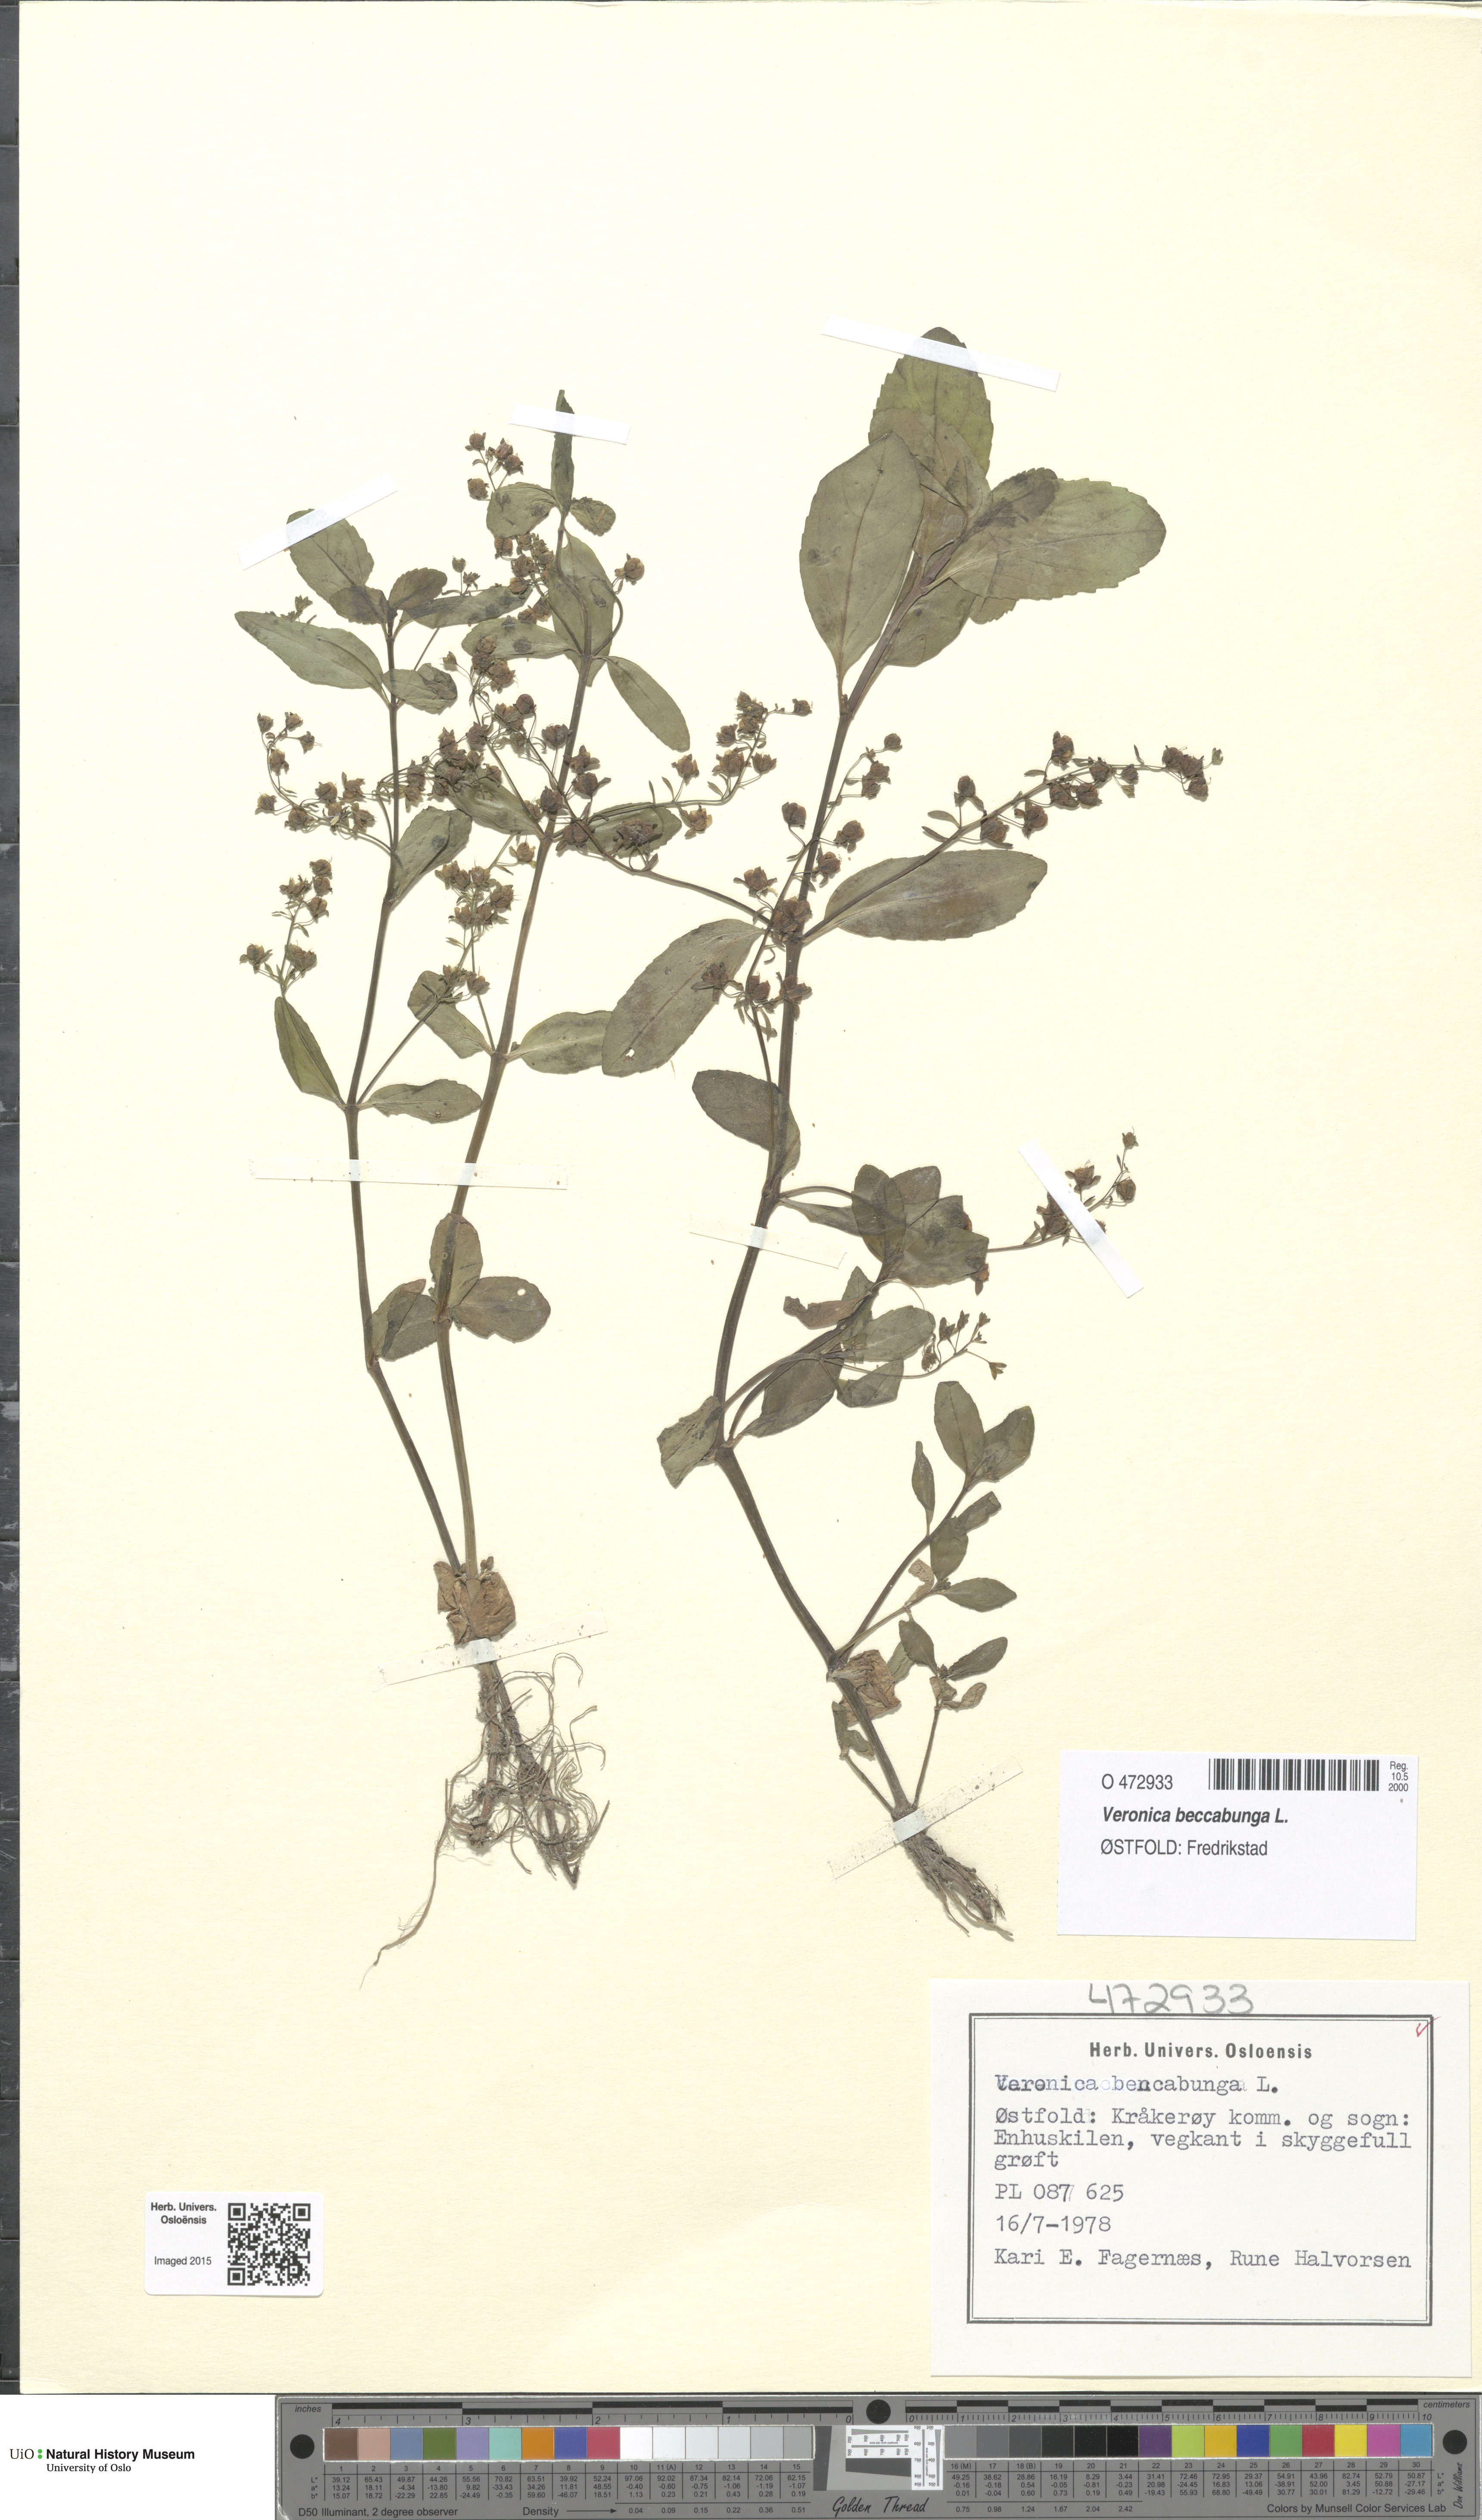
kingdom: Plantae
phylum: Tracheophyta
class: Magnoliopsida
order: Lamiales
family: Plantaginaceae
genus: Veronica
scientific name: Veronica beccabunga
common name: Brooklime
